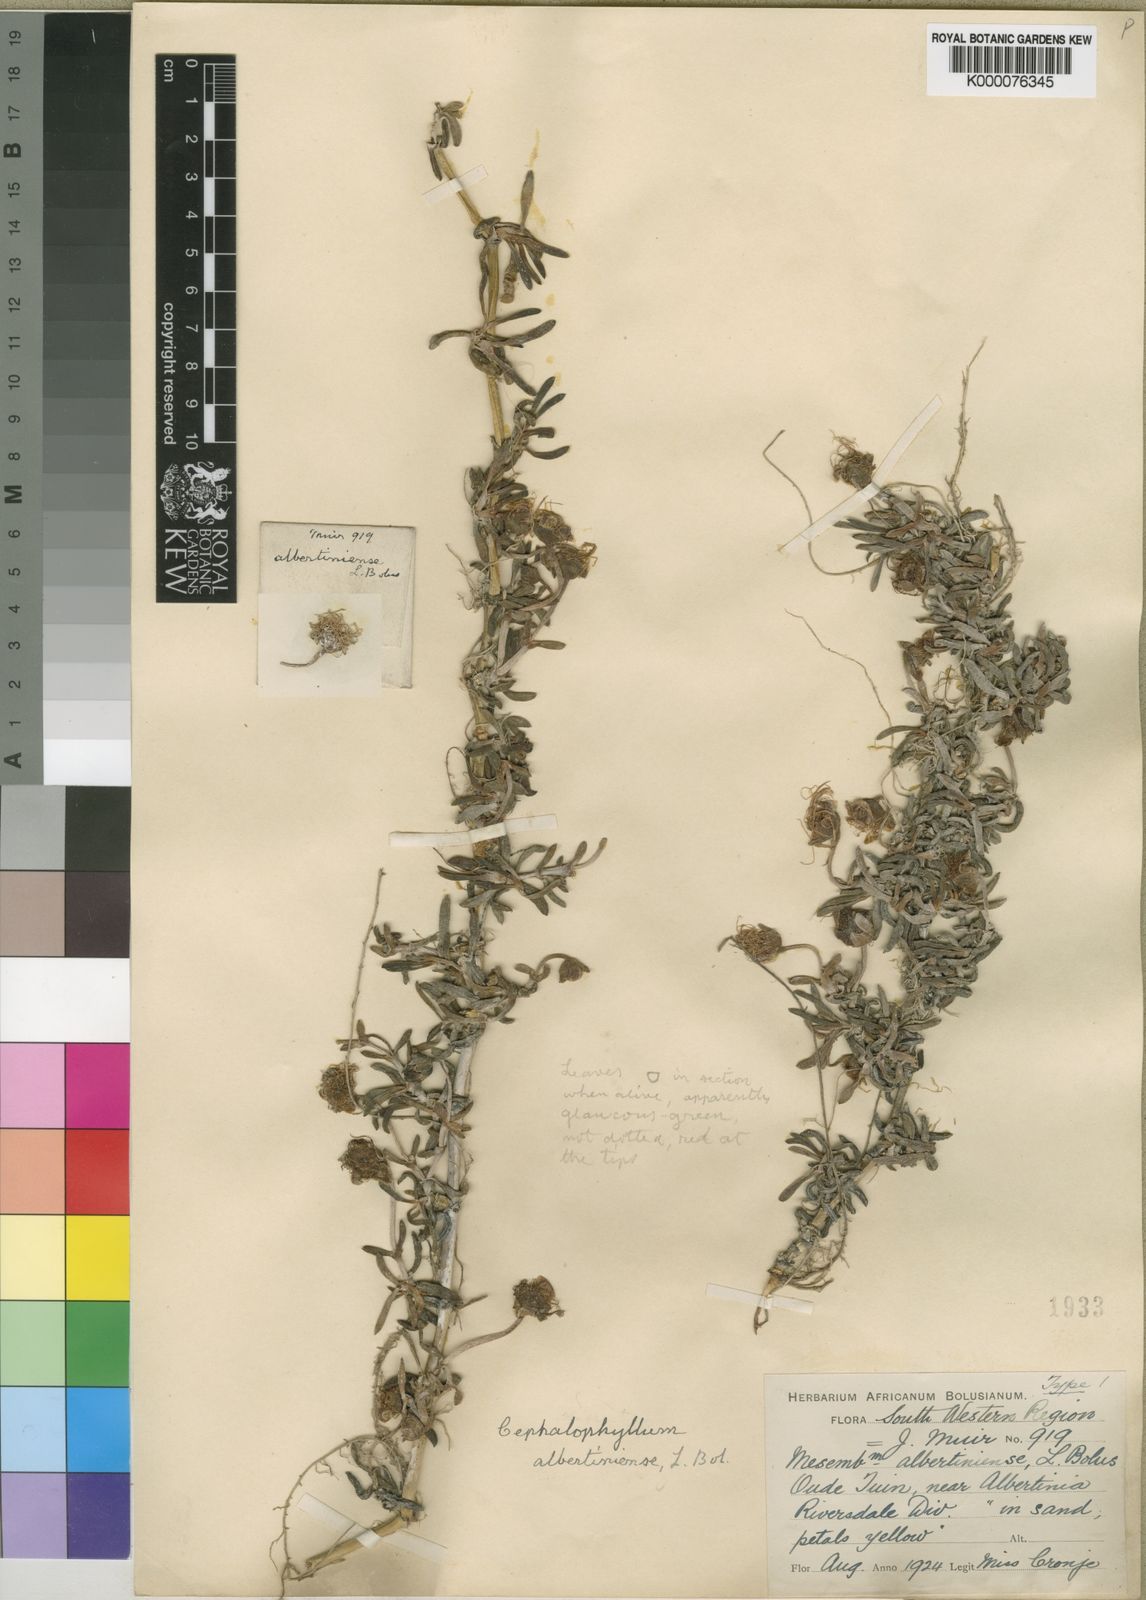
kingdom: Plantae
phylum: Tracheophyta
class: Magnoliopsida
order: Caryophyllales
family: Aizoaceae
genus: Jordaaniella
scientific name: Jordaaniella dubia
